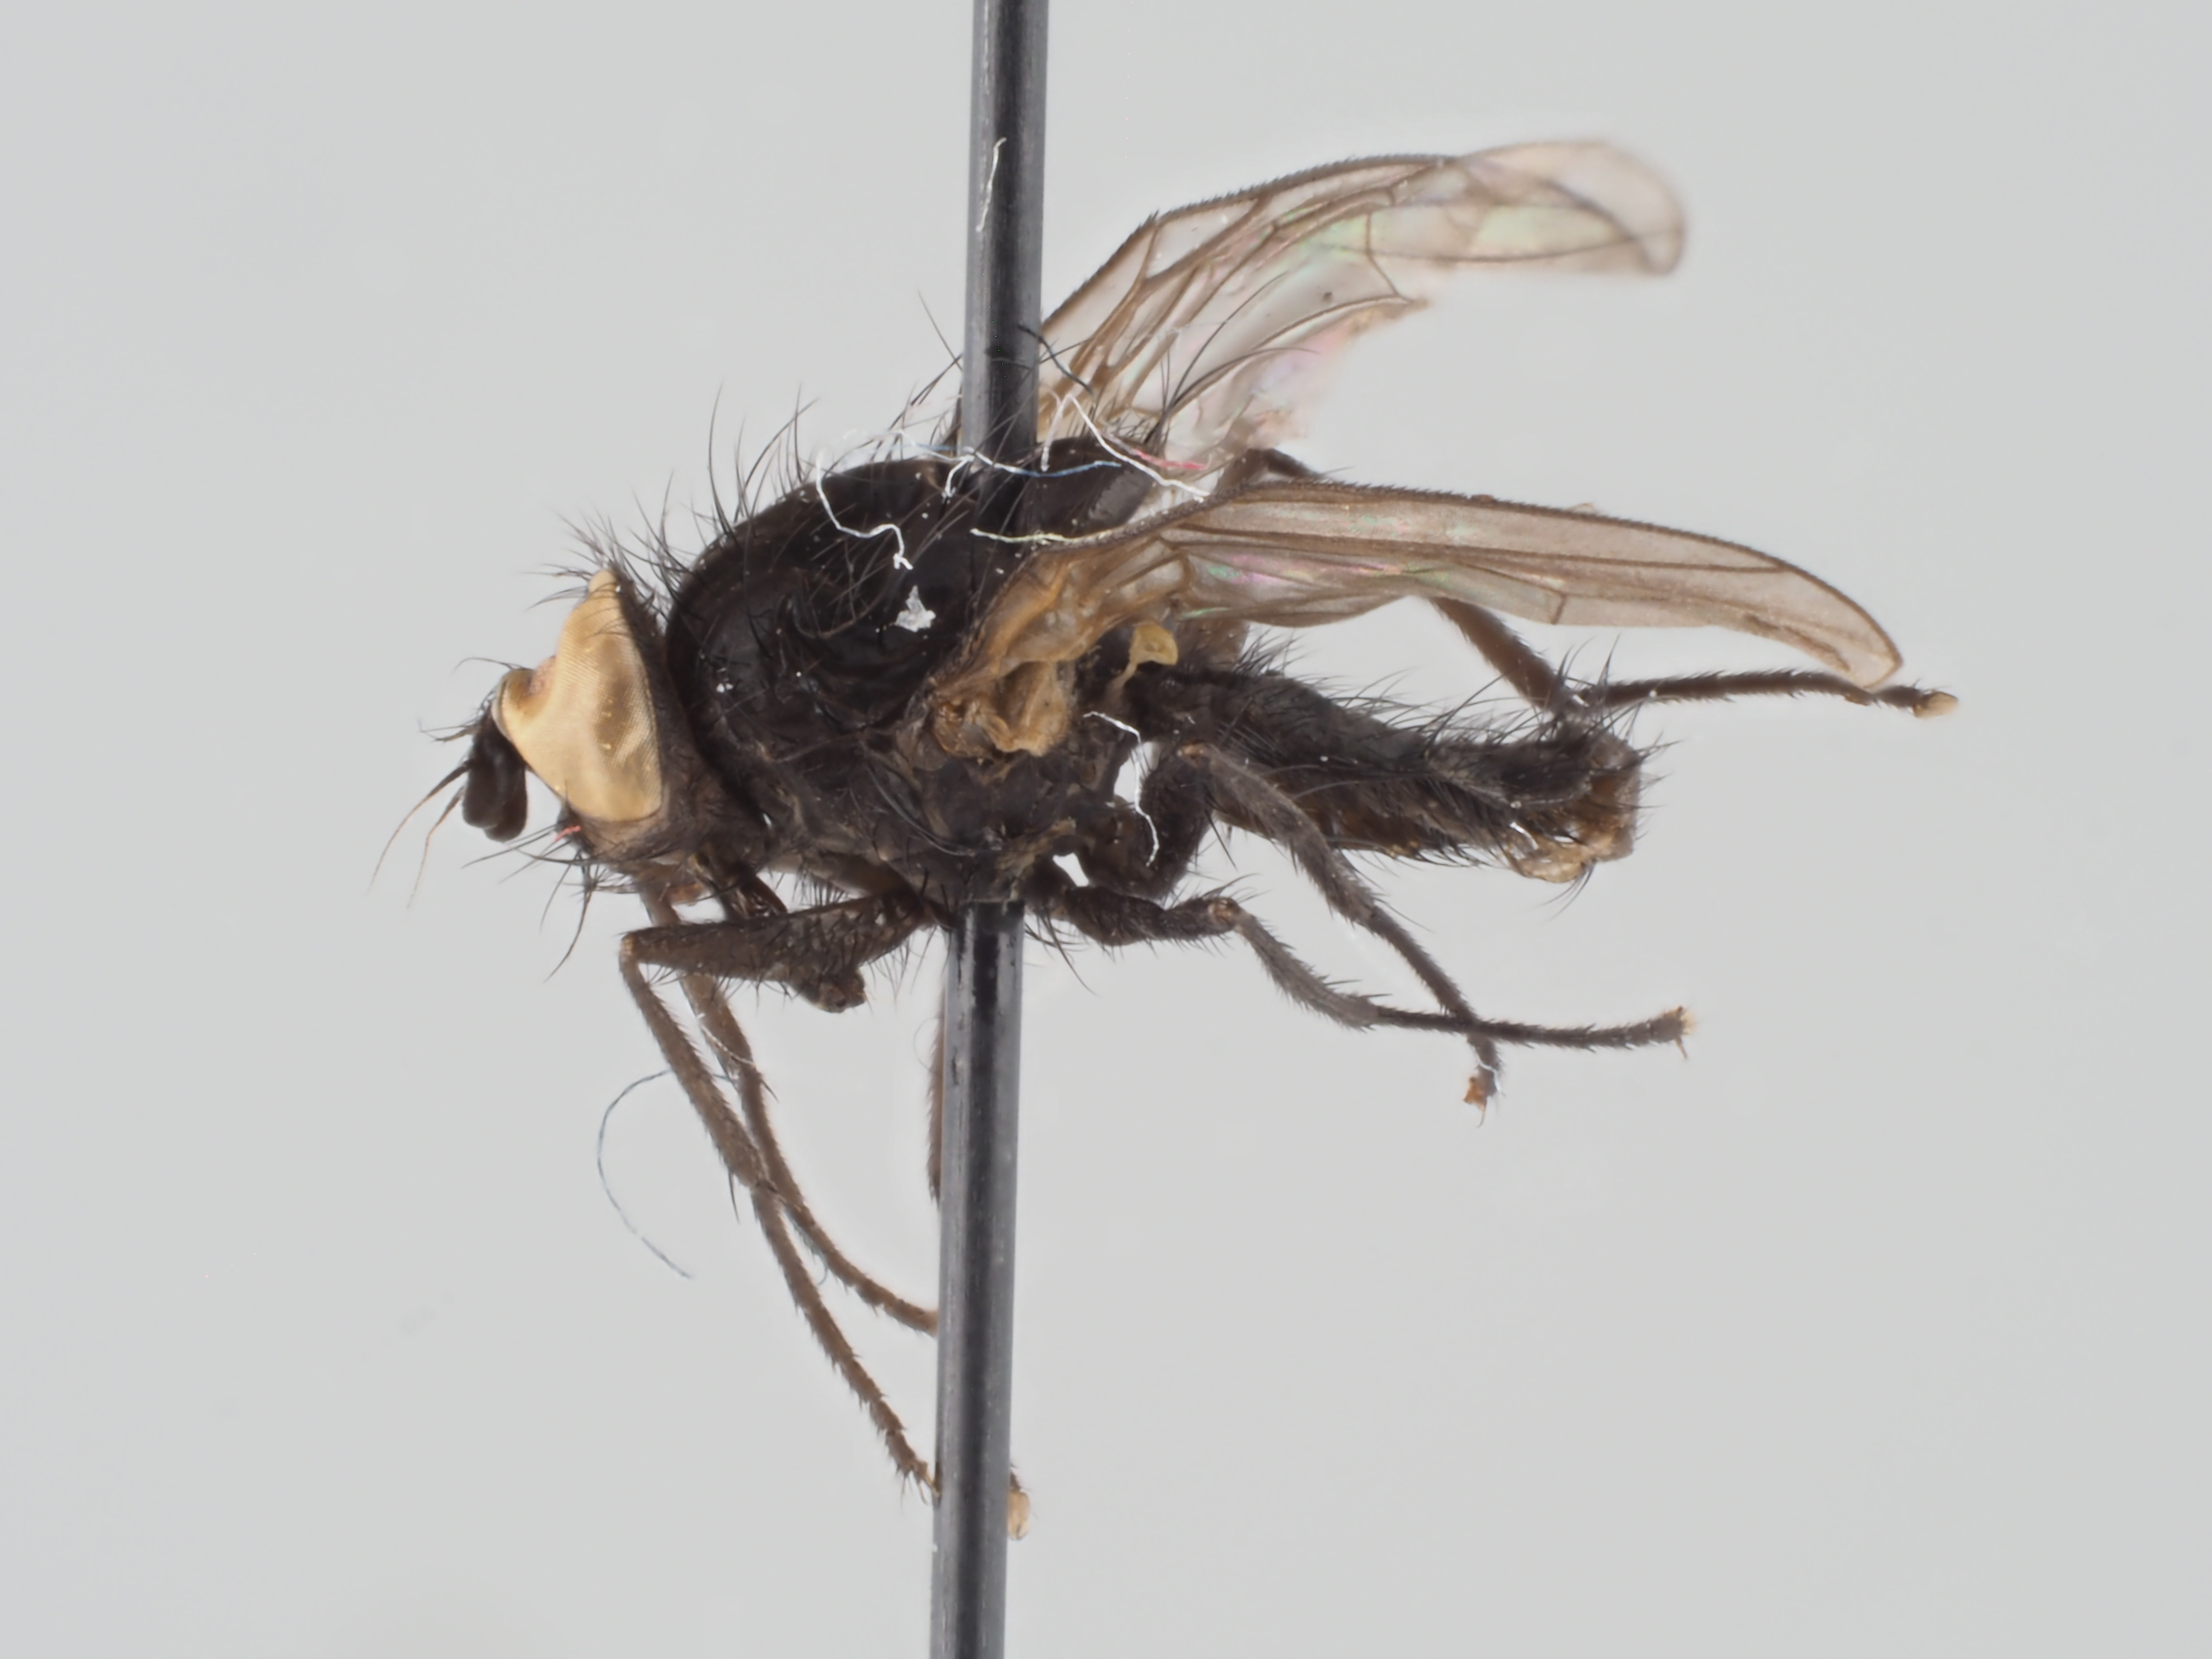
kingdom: Animalia
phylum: Arthropoda
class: Insecta
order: Diptera
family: Anthomyiidae
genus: Strobilomyia
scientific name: Strobilomyia svenssoni
